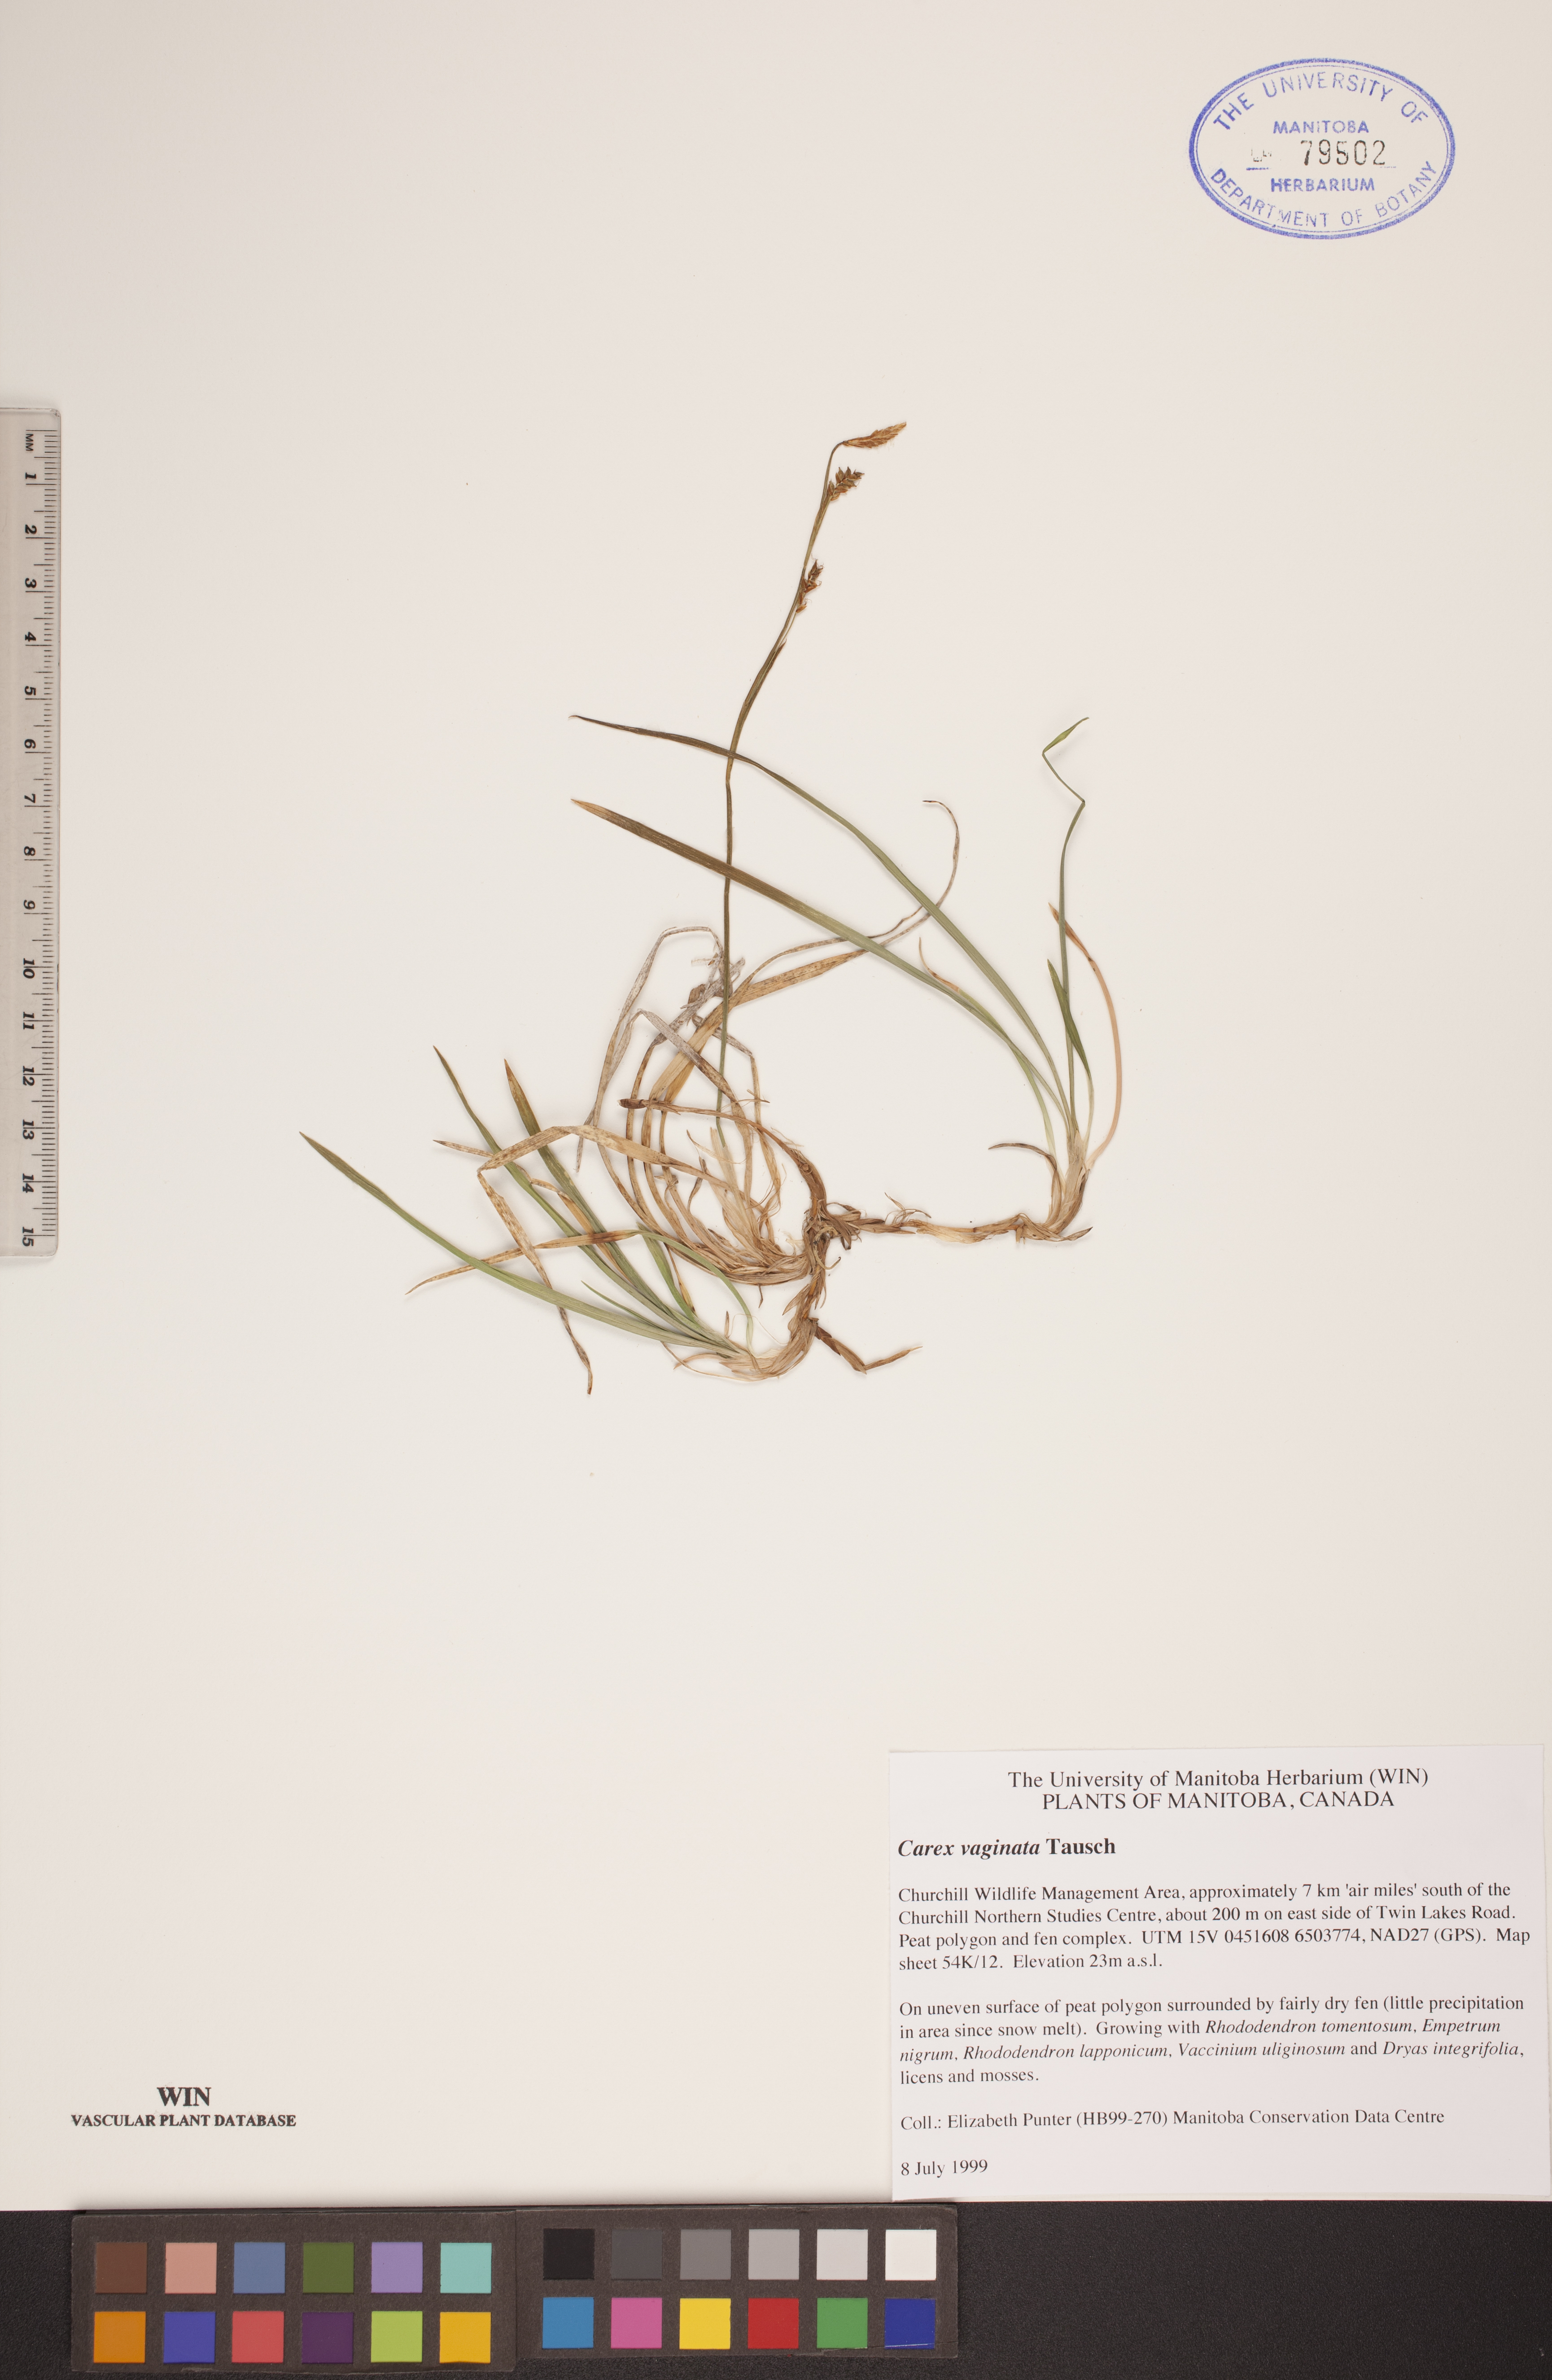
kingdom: Plantae
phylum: Tracheophyta
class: Liliopsida
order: Poales
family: Cyperaceae
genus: Carex
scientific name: Carex vaginata
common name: Sheathed sedge
